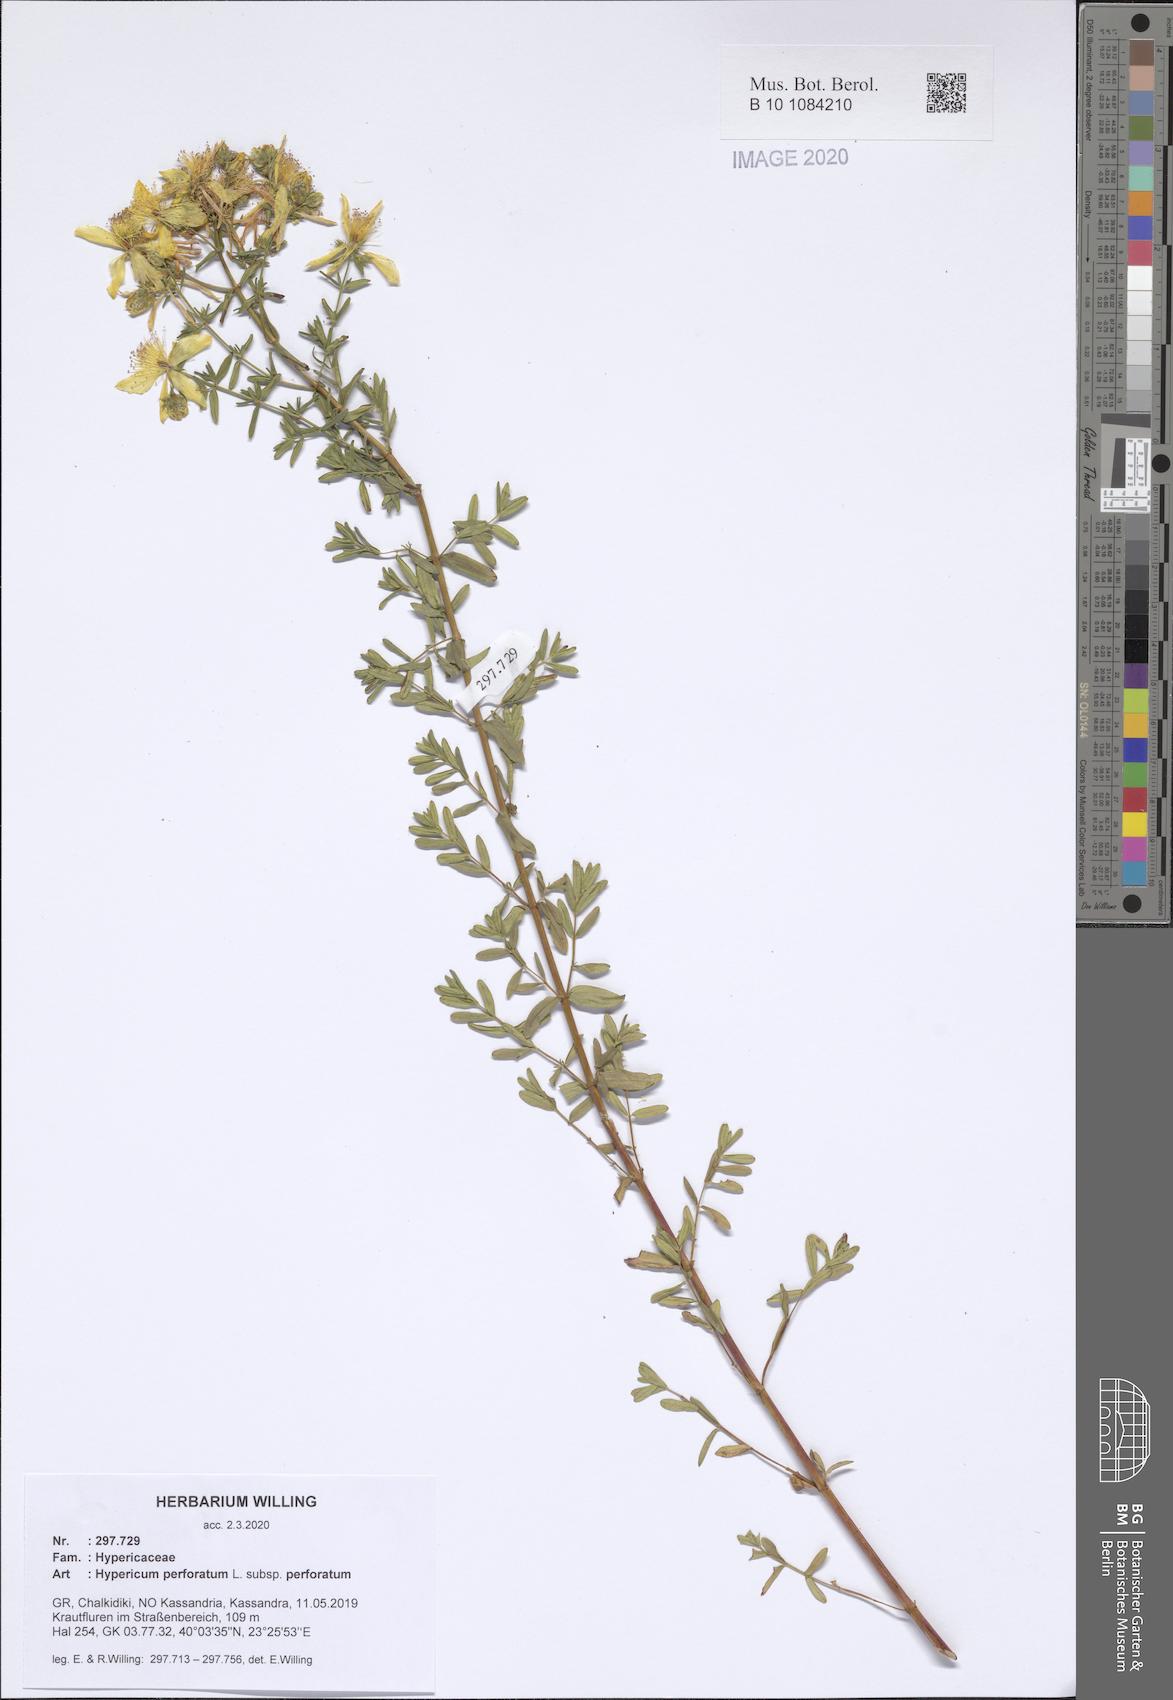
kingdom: Plantae
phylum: Tracheophyta
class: Magnoliopsida
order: Malpighiales
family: Hypericaceae
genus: Hypericum
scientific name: Hypericum perforatum
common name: Common st. johnswort
